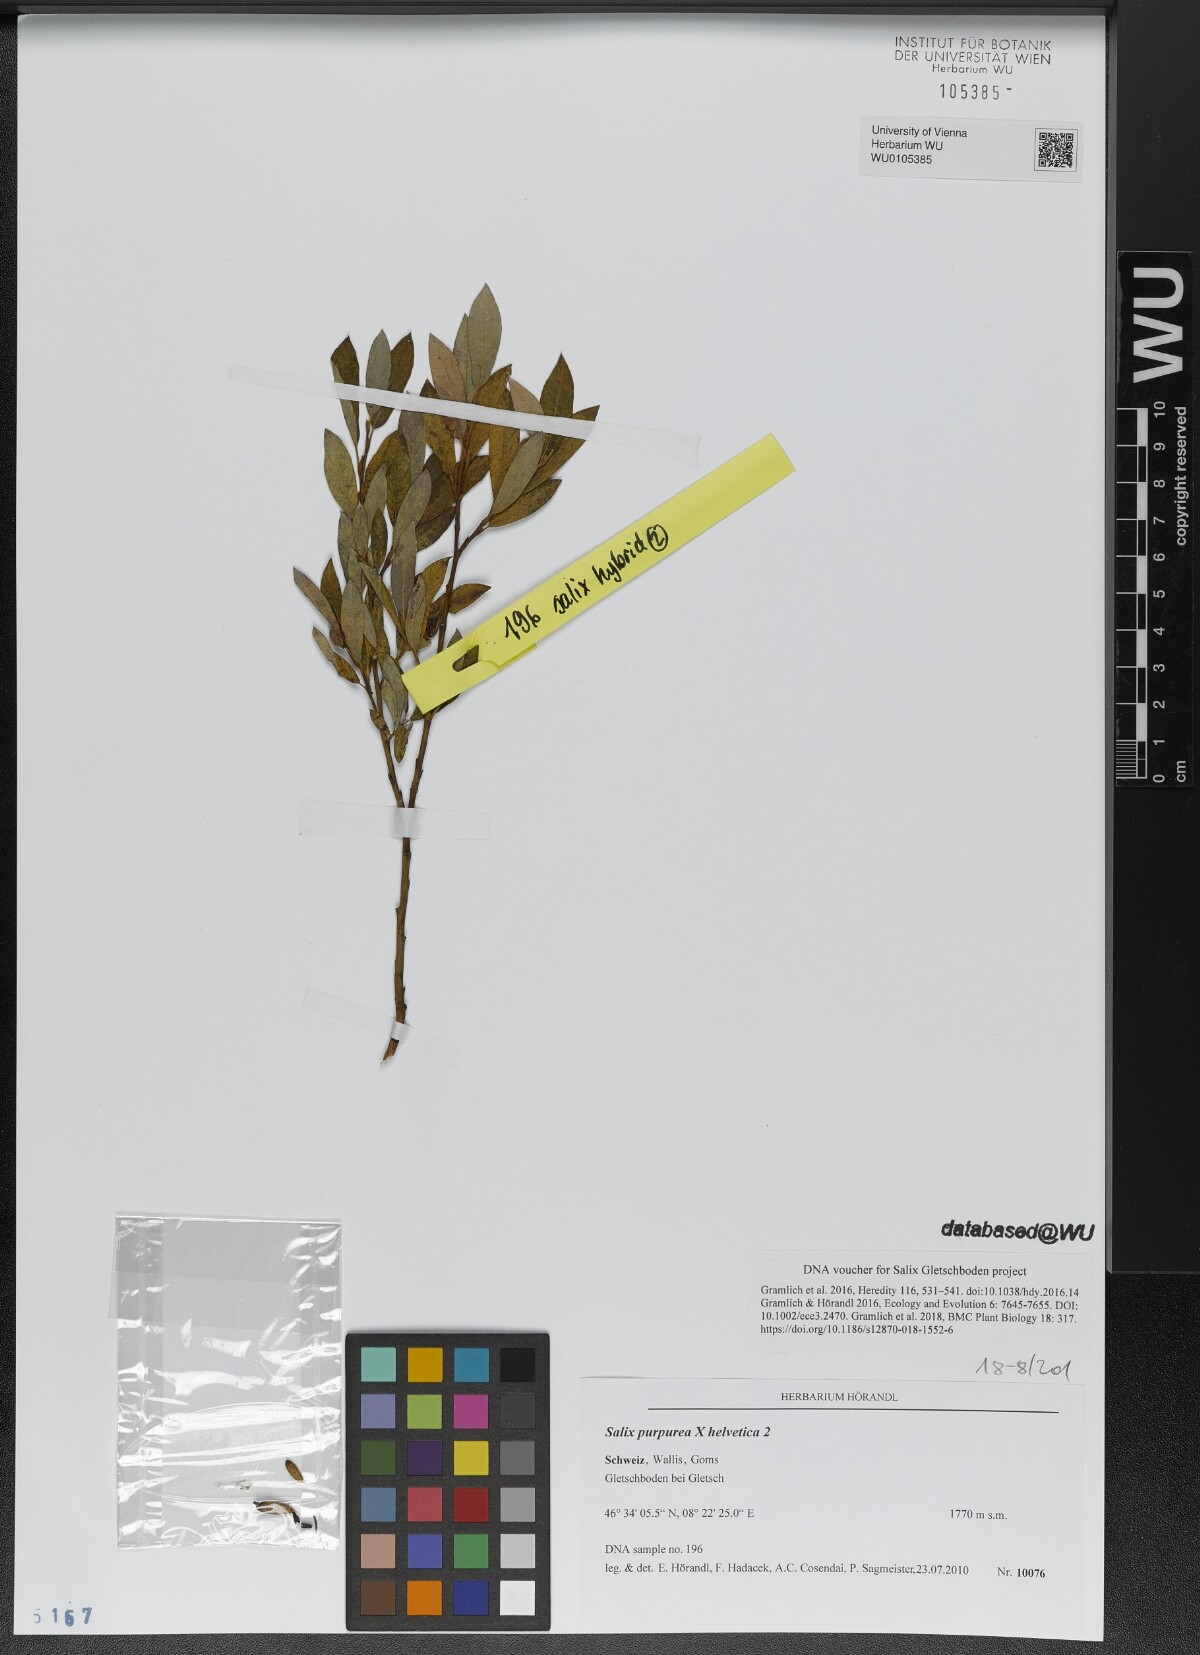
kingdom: Plantae
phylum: Tracheophyta
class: Magnoliopsida
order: Malpighiales
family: Salicaceae
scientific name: Salicaceae
